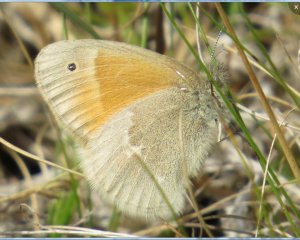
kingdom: Animalia
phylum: Arthropoda
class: Insecta
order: Lepidoptera
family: Nymphalidae
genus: Coenonympha
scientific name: Coenonympha tullia
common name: Large Heath
